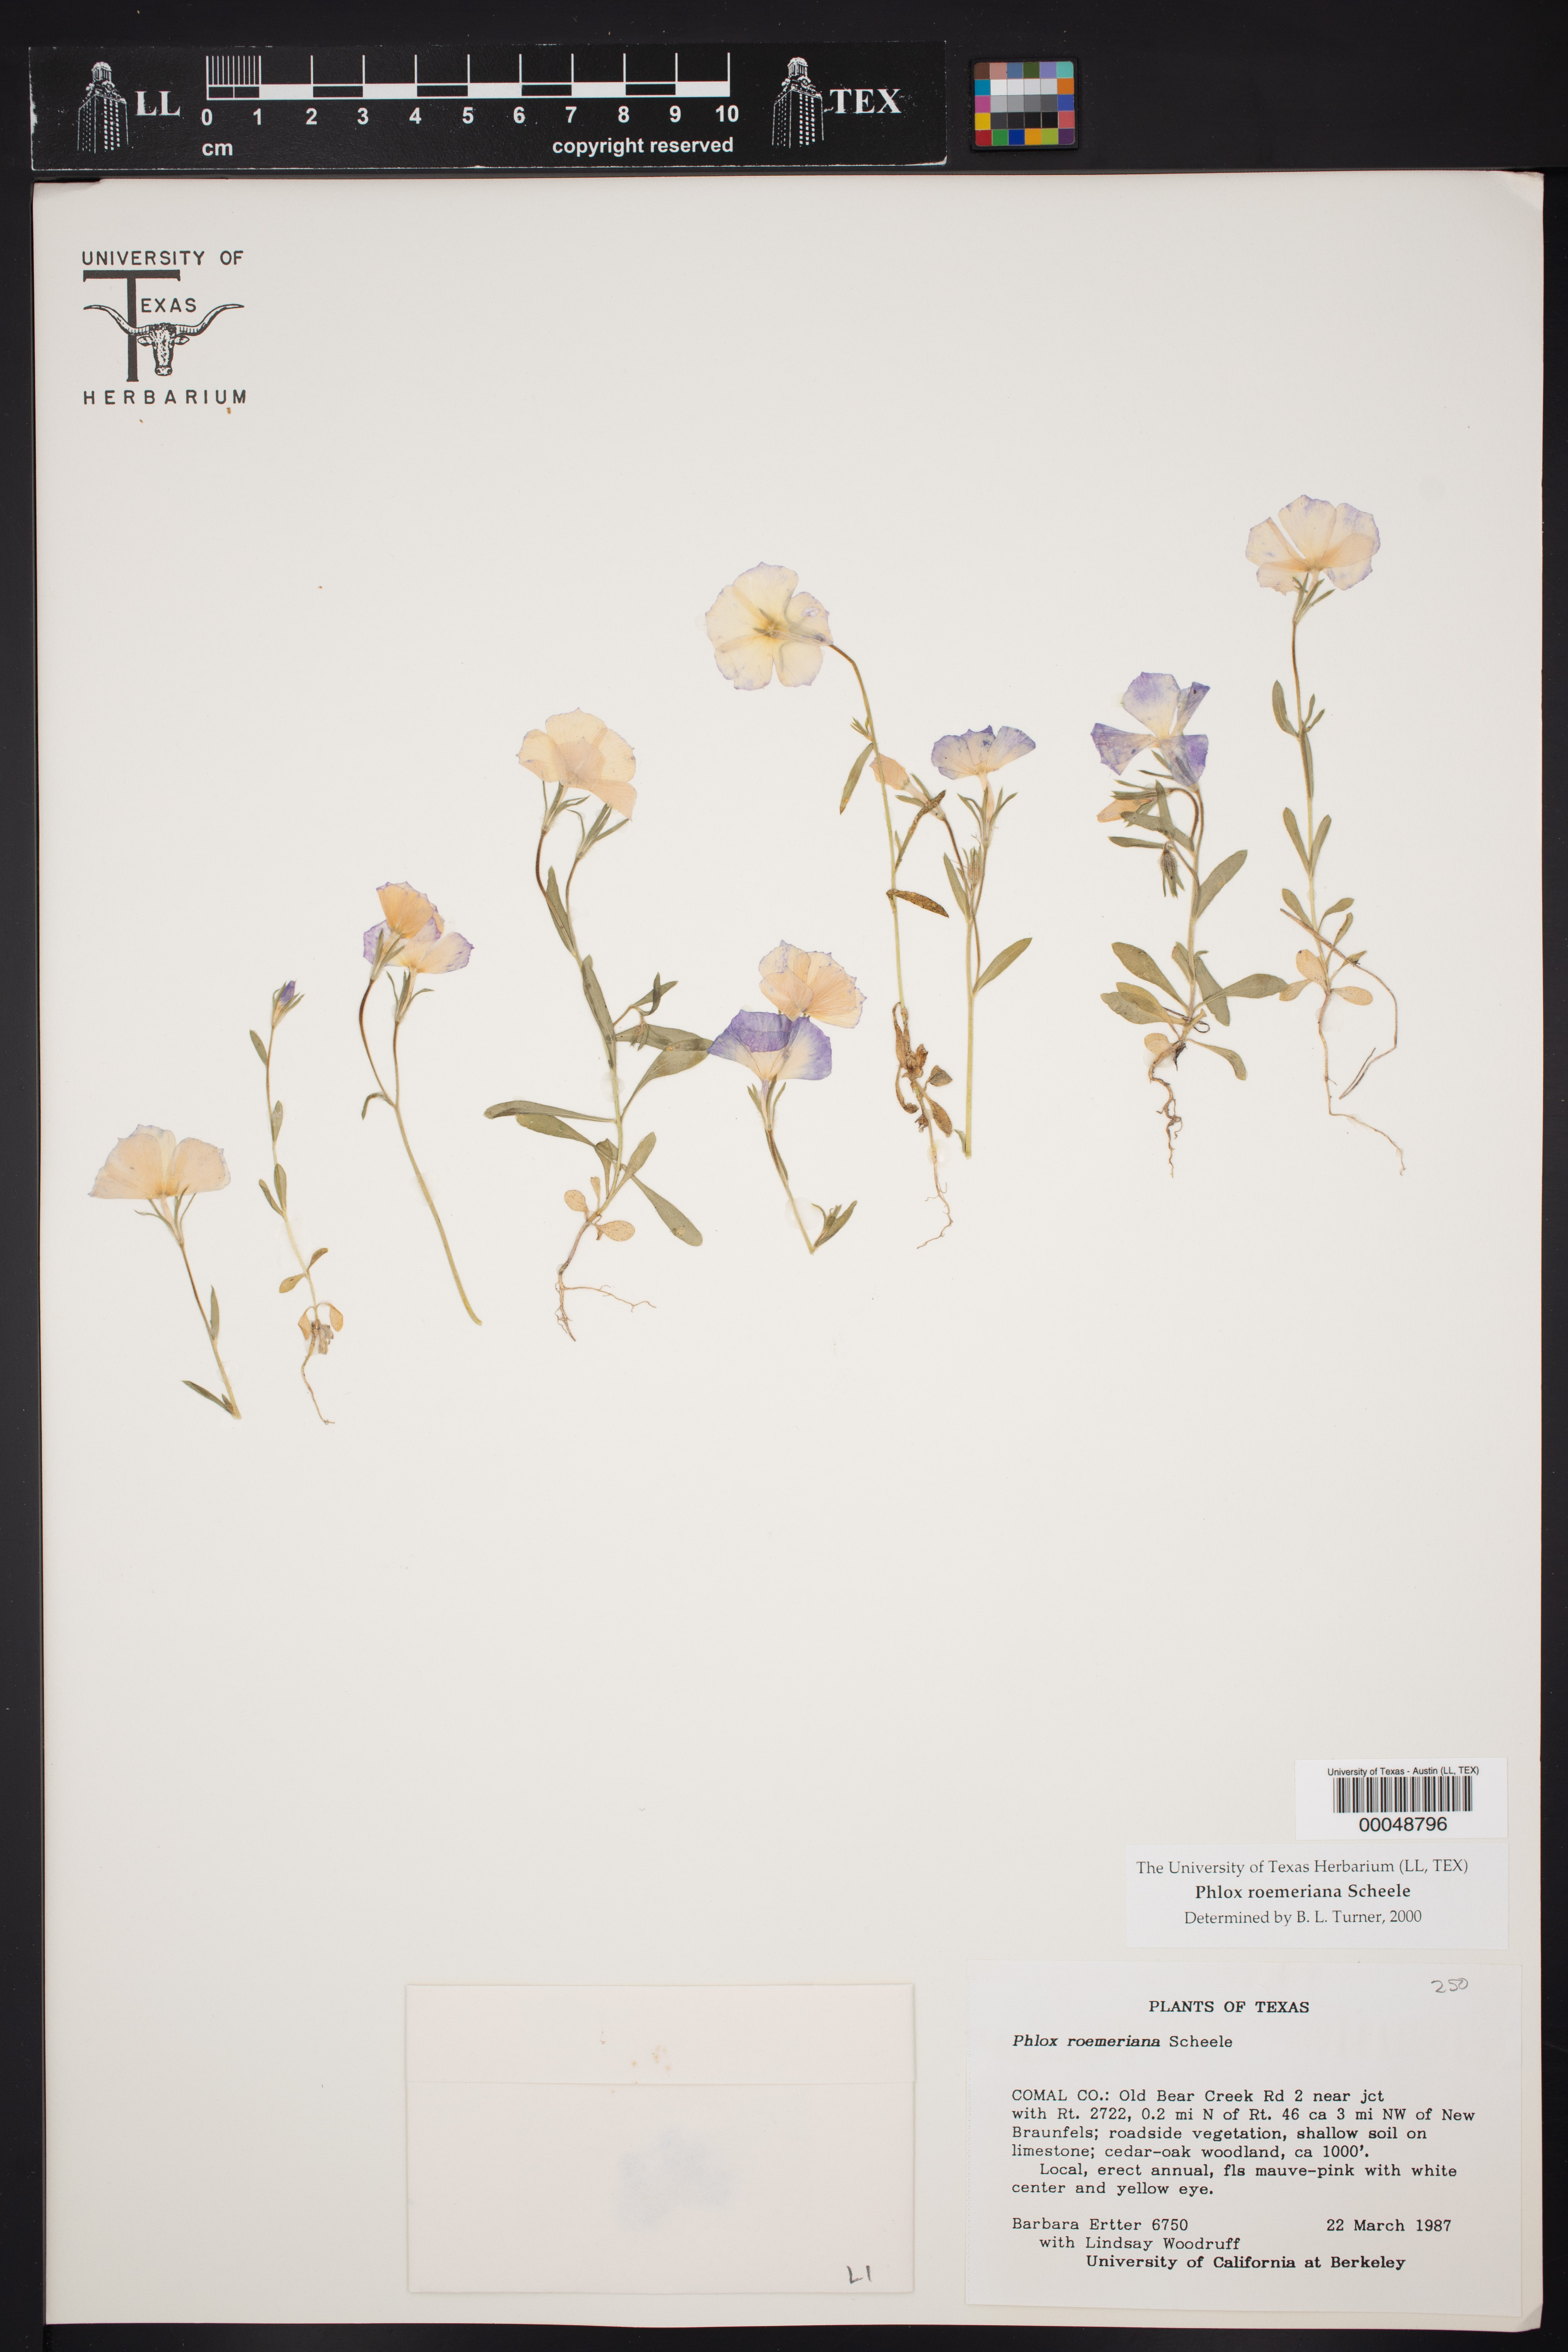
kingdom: Plantae
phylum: Tracheophyta
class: Magnoliopsida
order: Ericales
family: Polemoniaceae
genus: Phlox
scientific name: Phlox roemeriana
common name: Roemer's phlox
